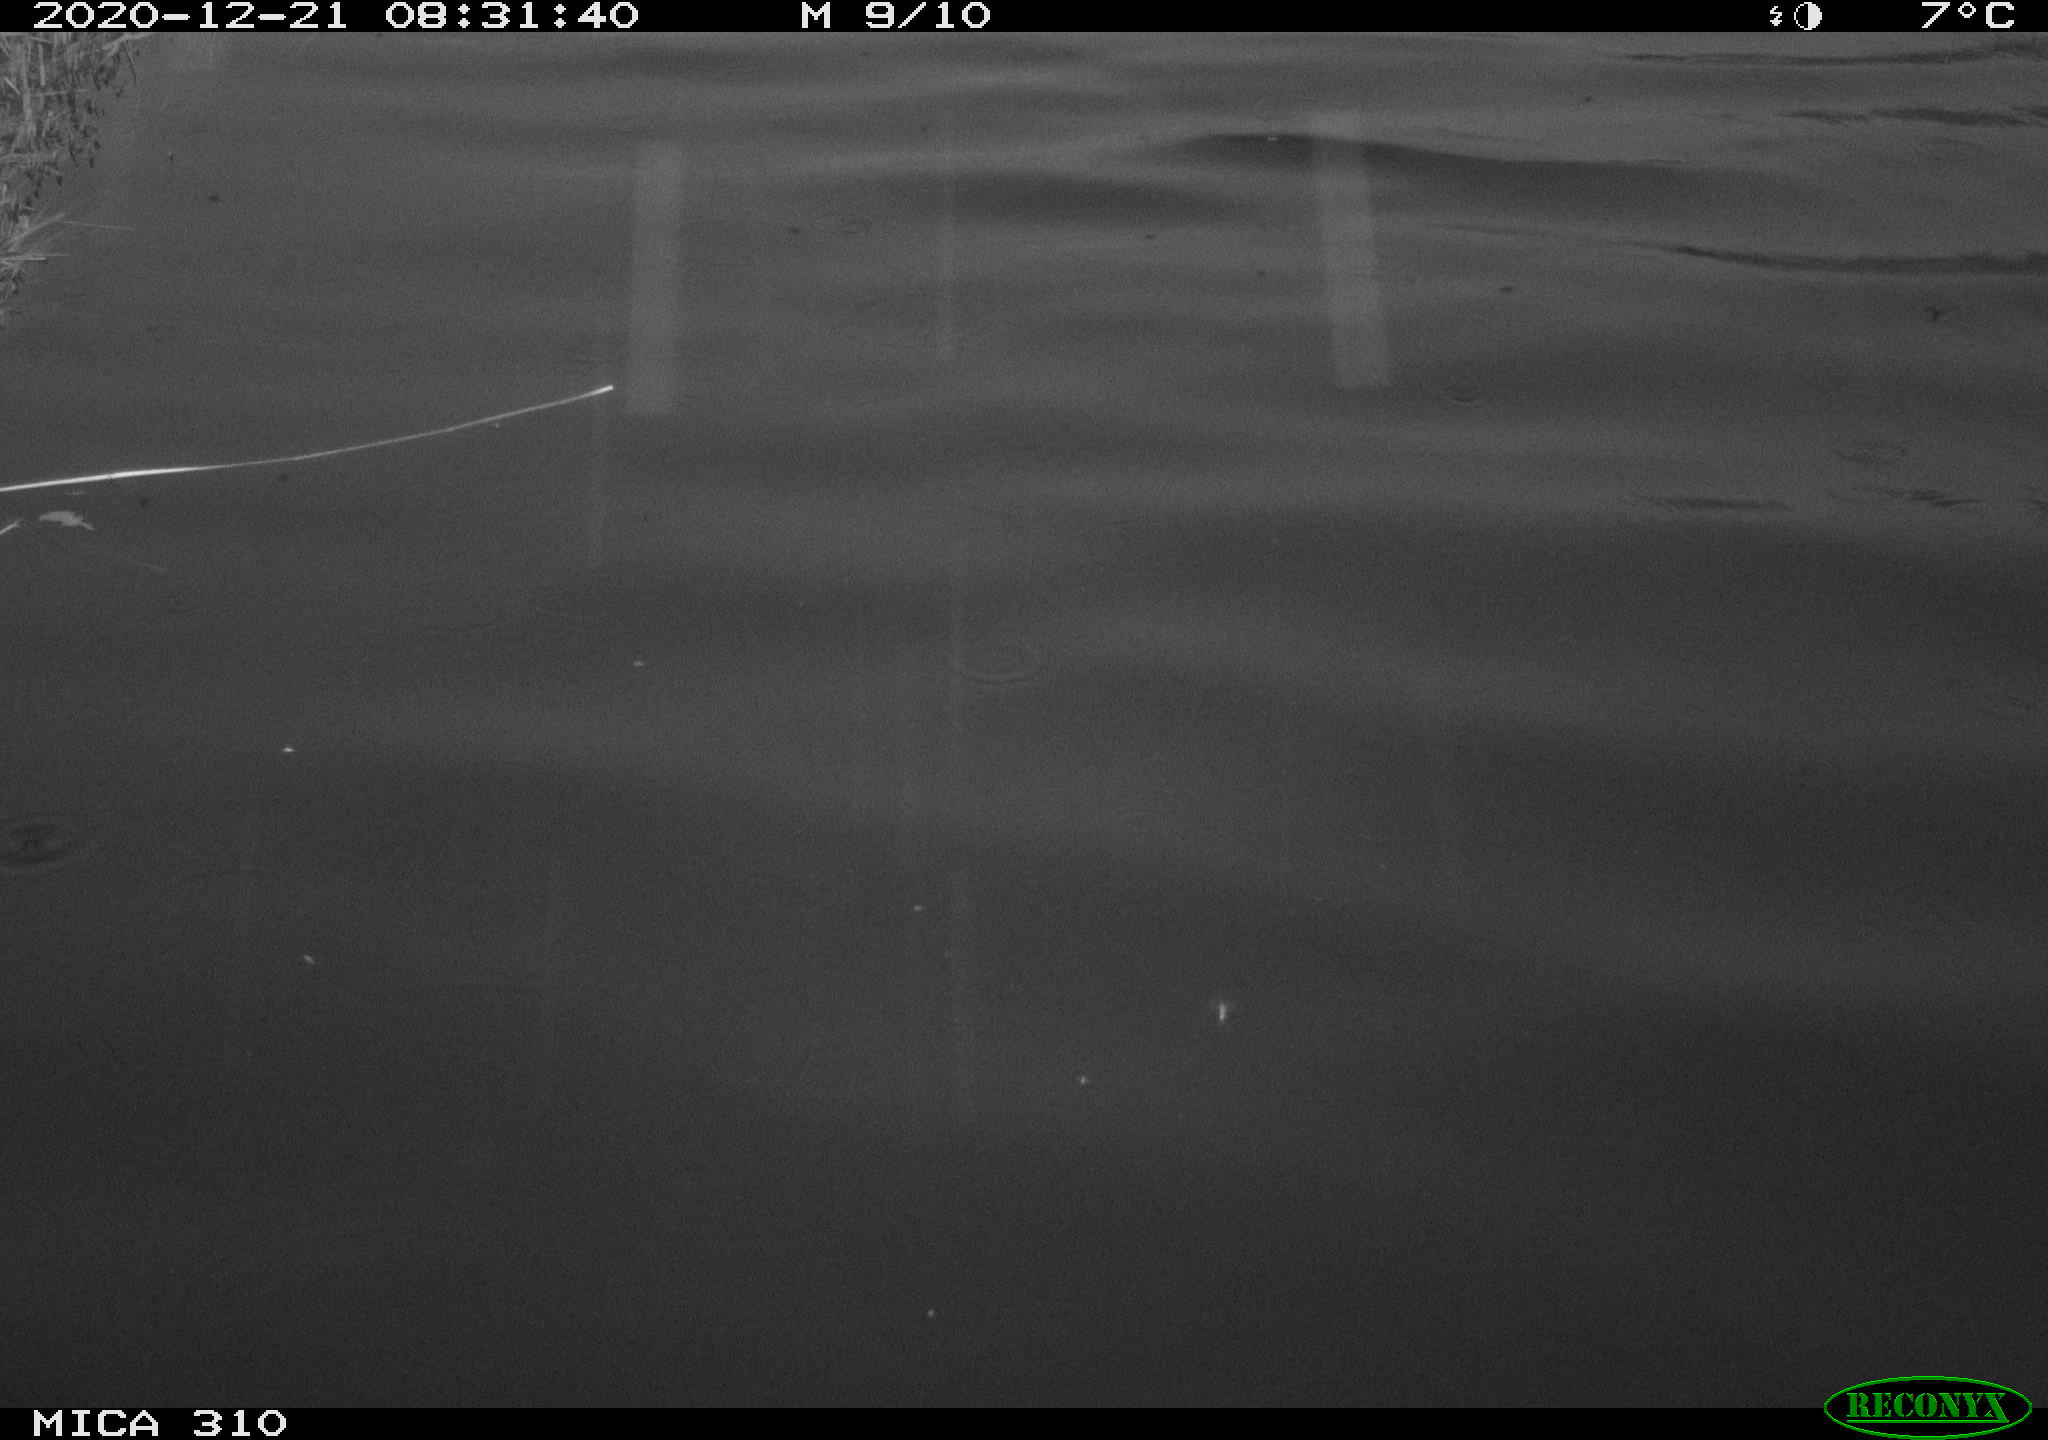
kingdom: Animalia
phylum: Chordata
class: Aves
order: Gruiformes
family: Rallidae
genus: Gallinula
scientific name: Gallinula chloropus
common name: Common moorhen
